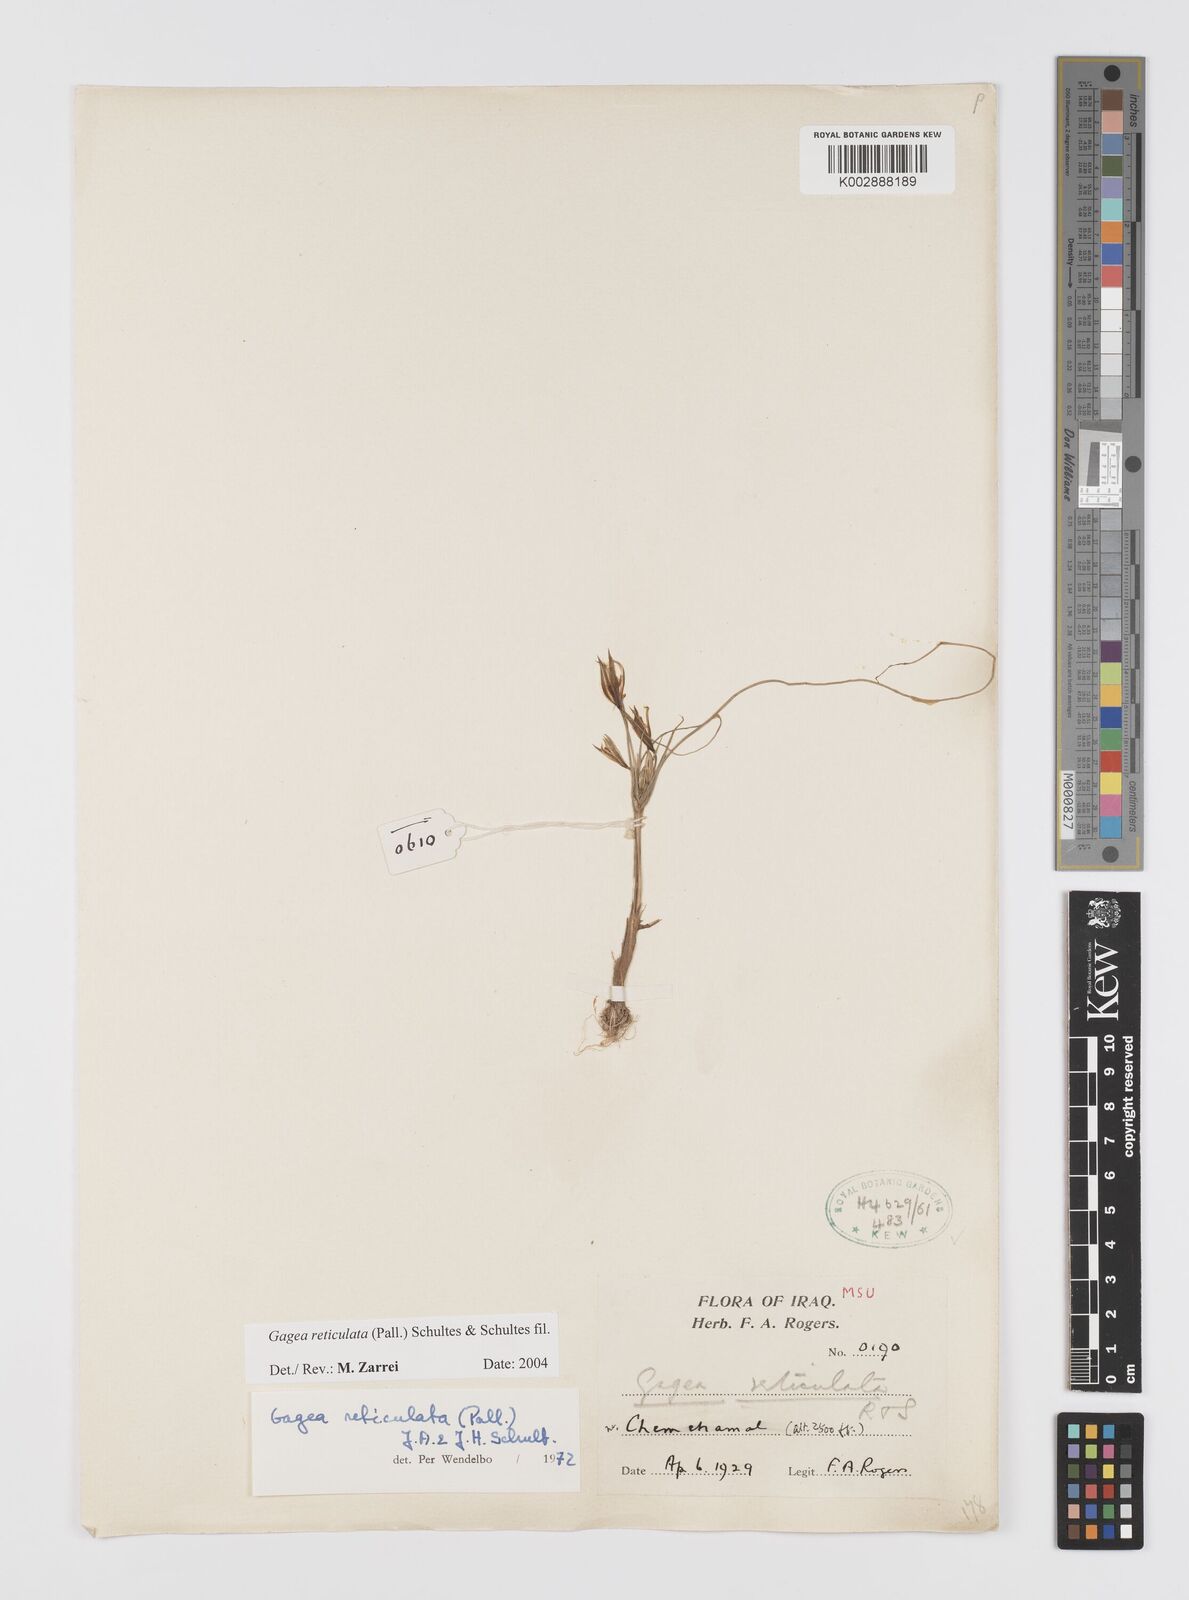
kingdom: Plantae
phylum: Tracheophyta
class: Liliopsida
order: Liliales
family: Liliaceae
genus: Gagea
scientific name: Gagea reticulata
